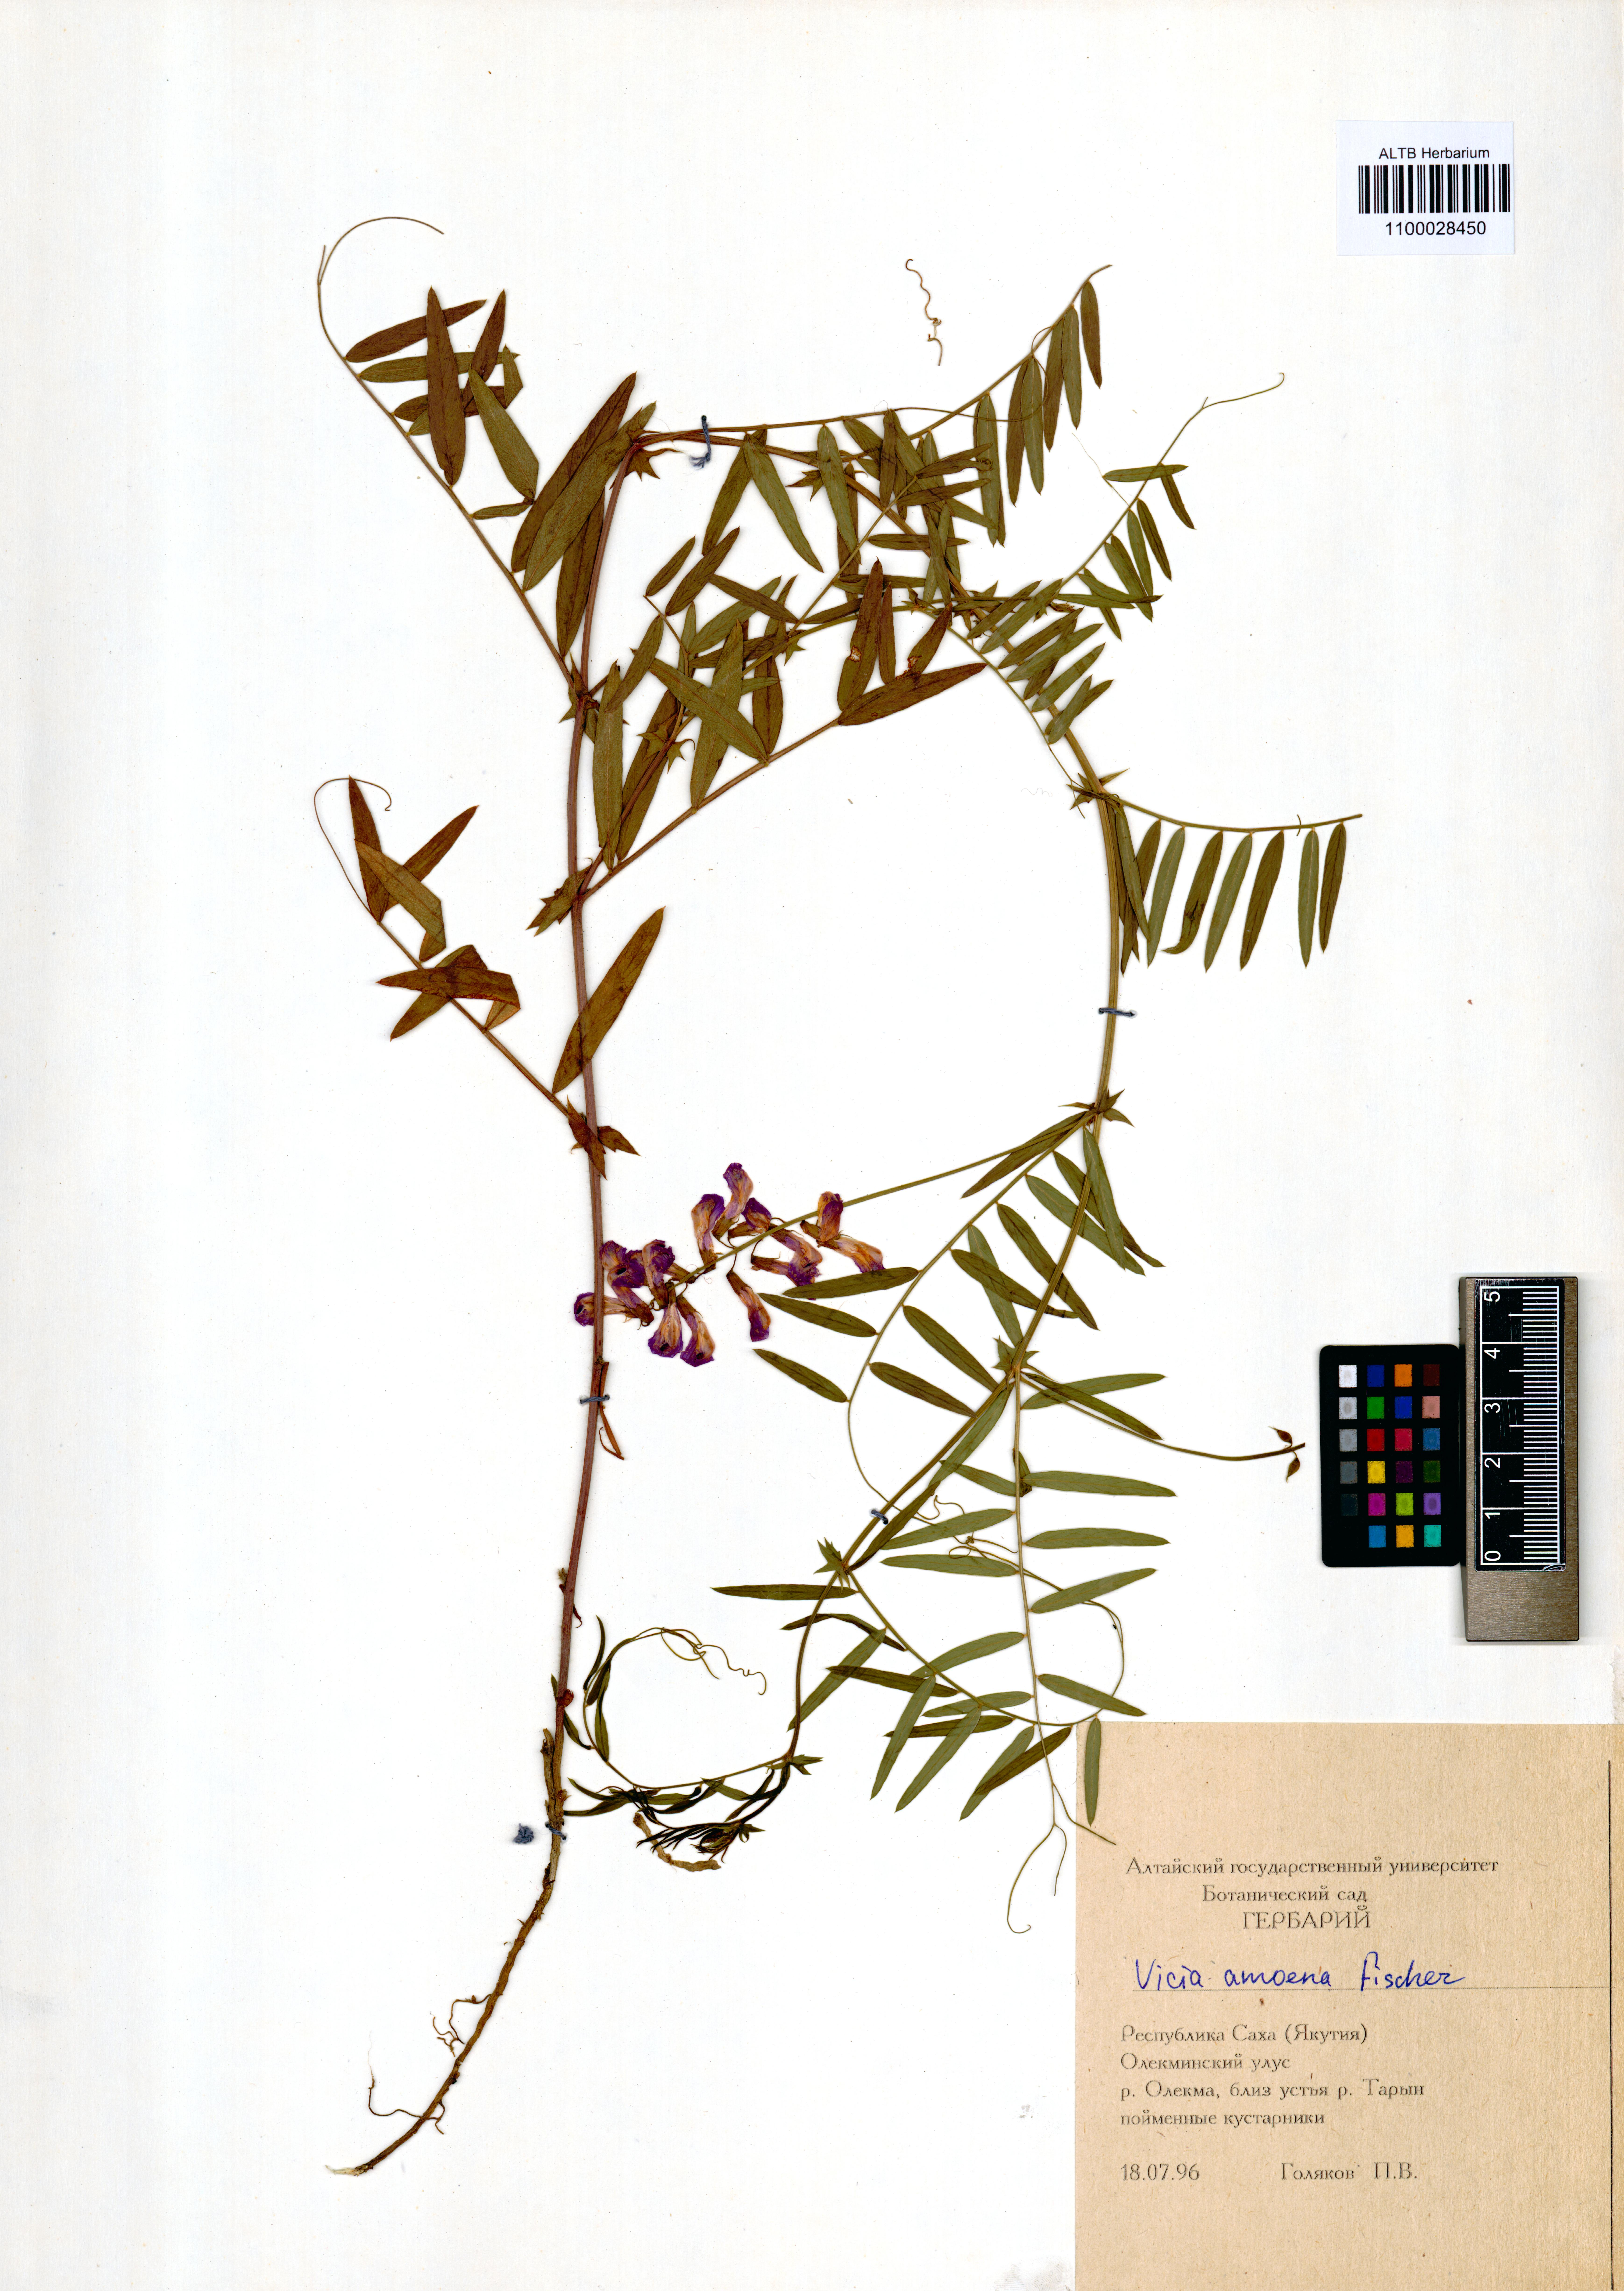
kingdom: Plantae
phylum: Tracheophyta
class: Magnoliopsida
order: Fabales
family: Fabaceae
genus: Vicia
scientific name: Vicia amoena
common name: Cheder ebs
